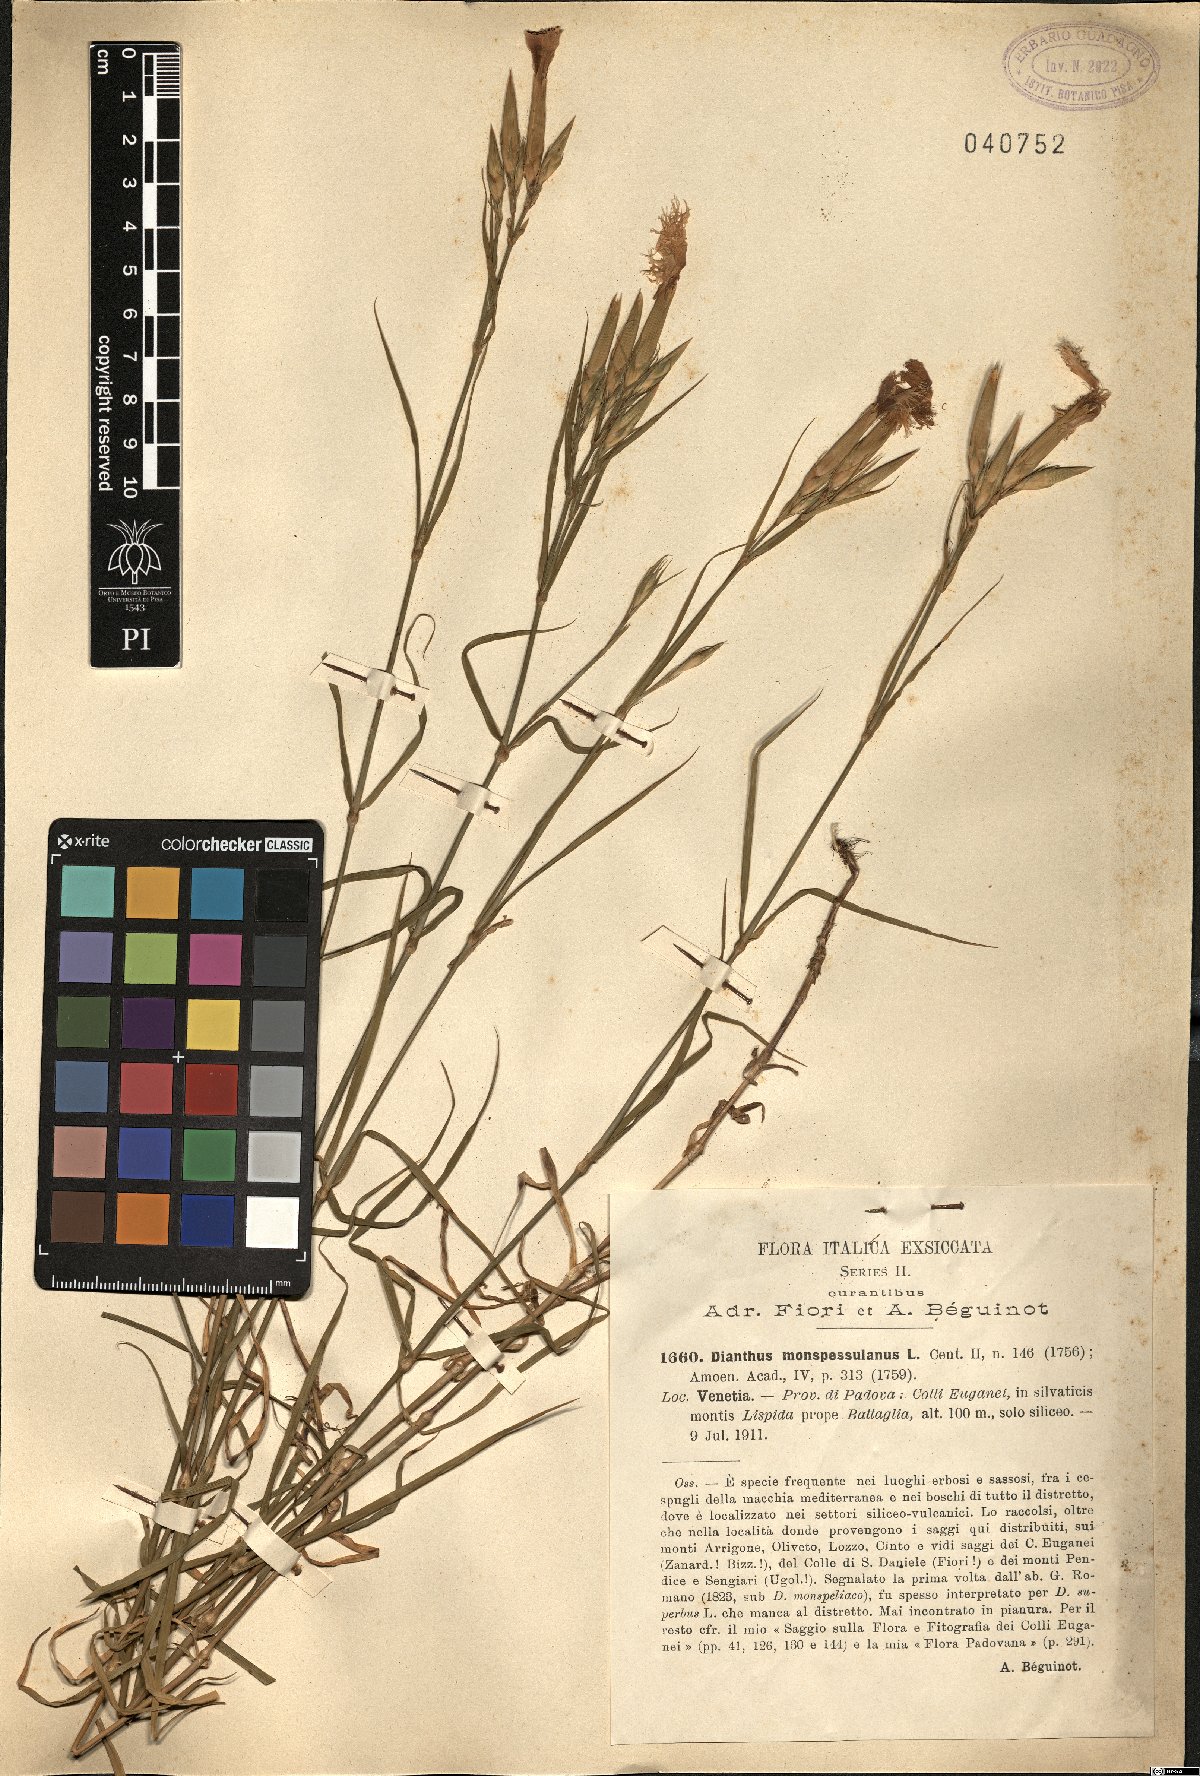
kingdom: Plantae
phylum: Tracheophyta
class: Magnoliopsida
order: Caryophyllales
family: Caryophyllaceae
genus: Dianthus
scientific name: Dianthus hyssopifolius
